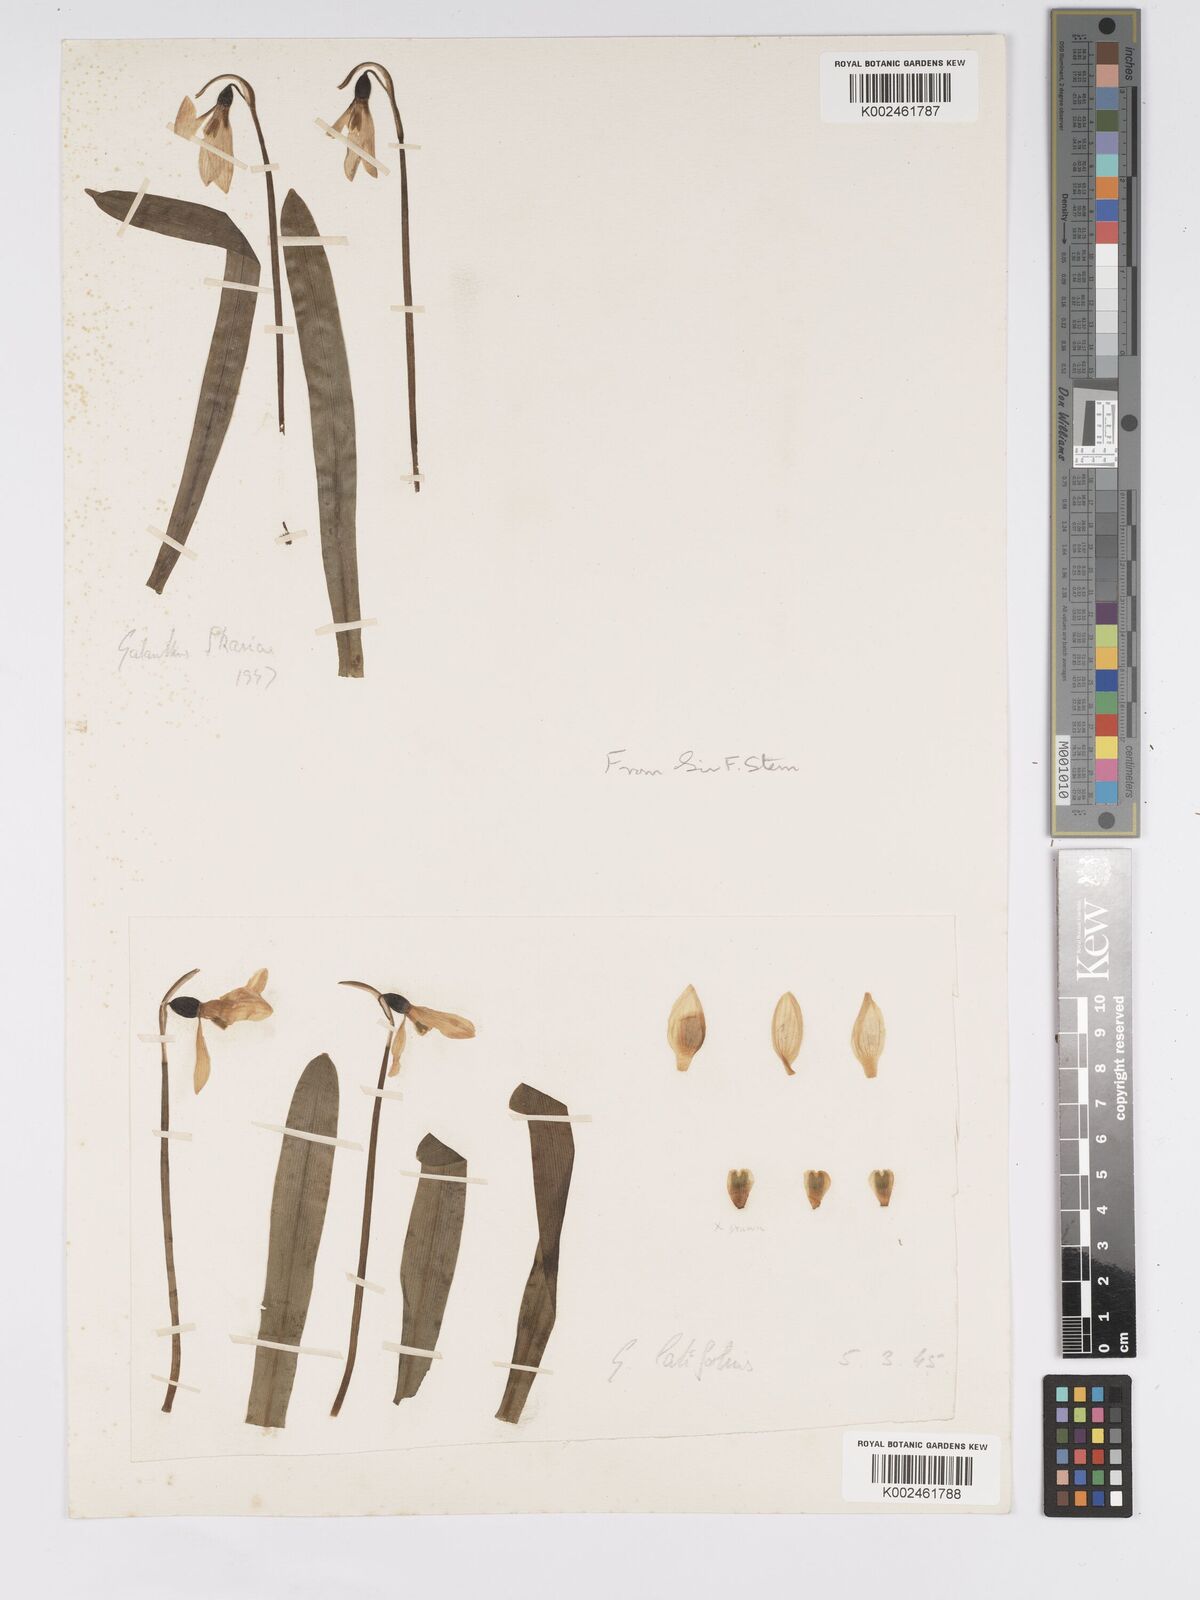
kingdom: Plantae
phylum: Tracheophyta
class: Liliopsida
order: Asparagales
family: Amaryllidaceae
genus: Galanthus
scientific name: Galanthus
